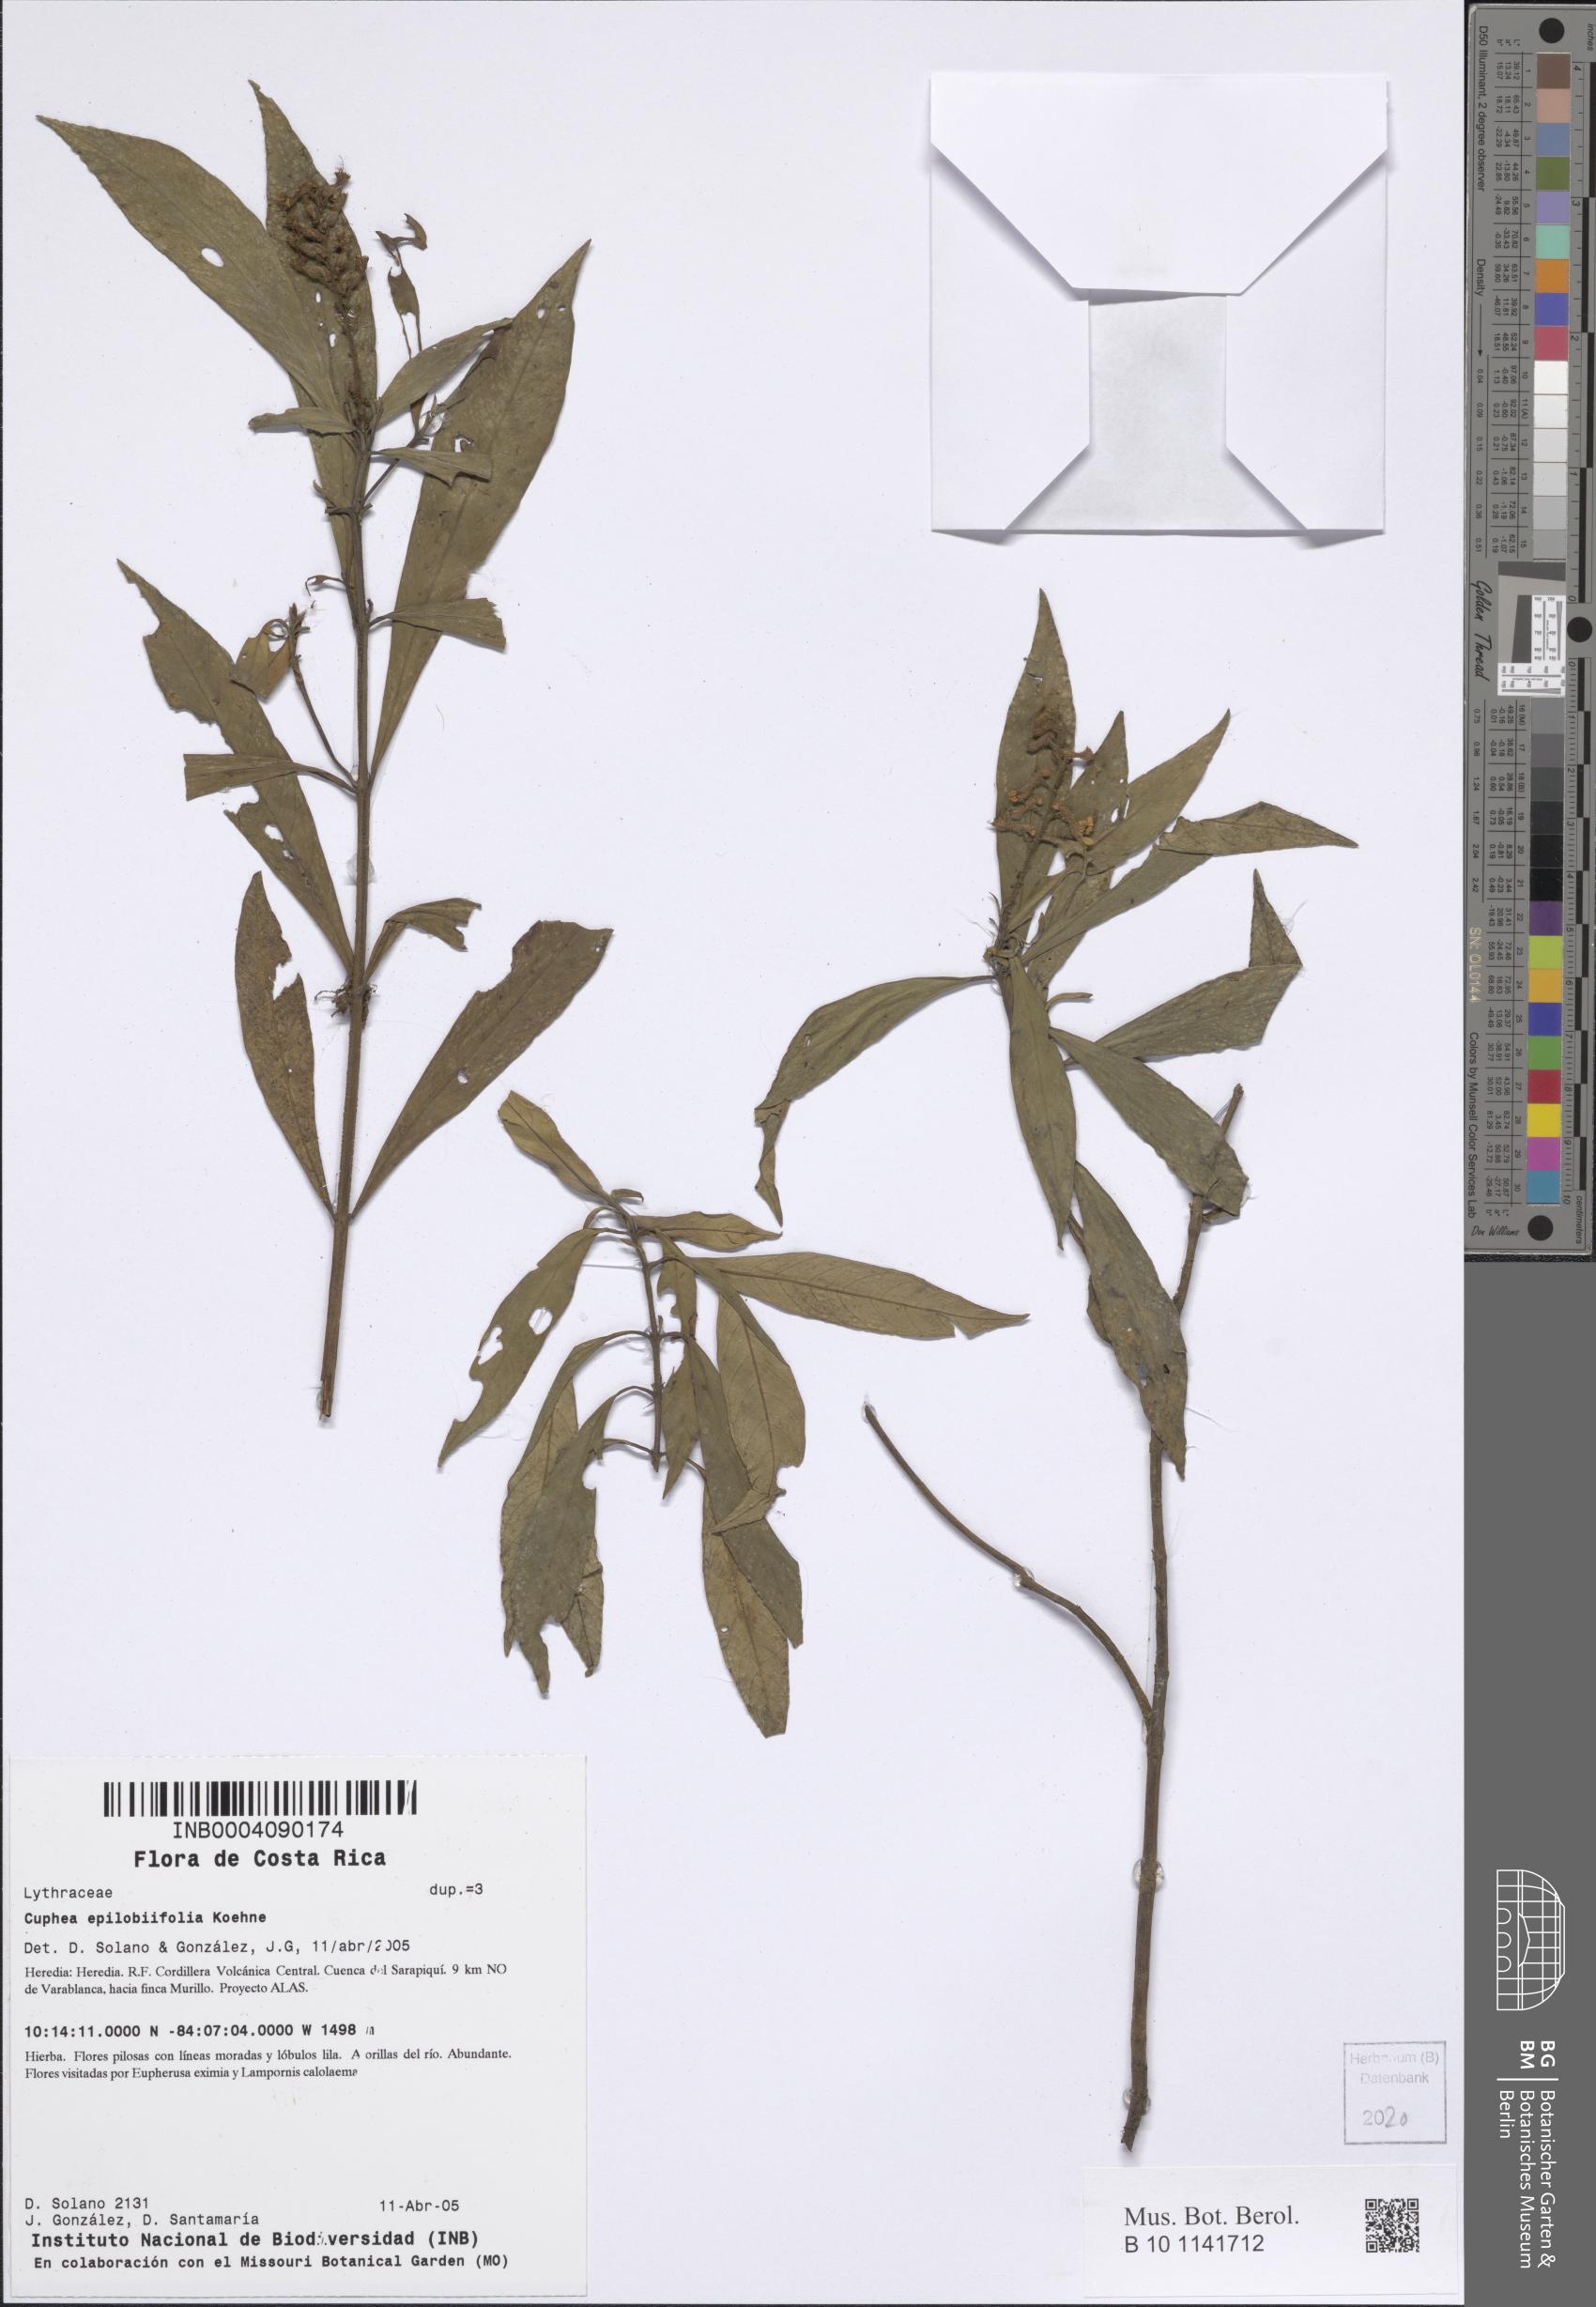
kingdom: Plantae
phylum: Tracheophyta
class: Magnoliopsida
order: Myrtales
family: Lythraceae
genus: Cuphea
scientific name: Cuphea epilobiifolia
